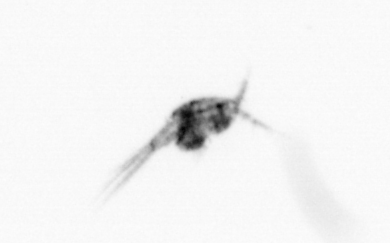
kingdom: Animalia
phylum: Arthropoda
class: Copepoda
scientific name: Copepoda
